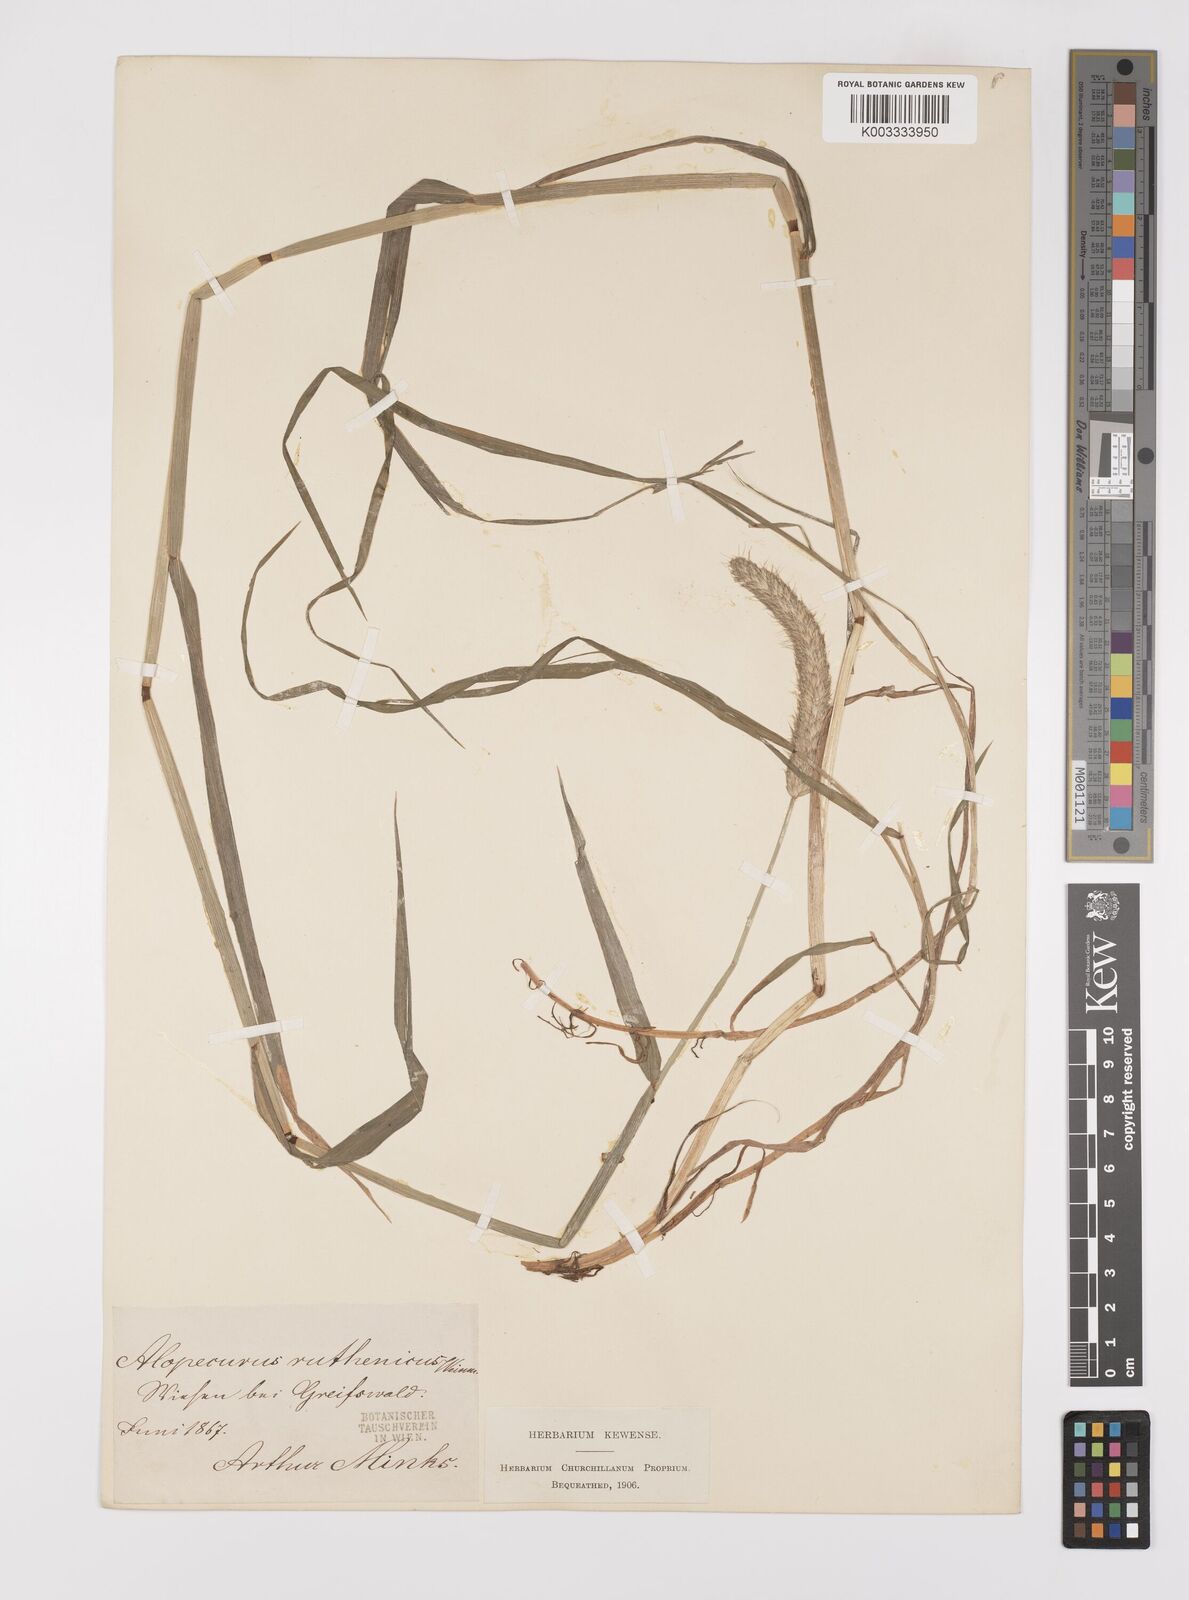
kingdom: Plantae
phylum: Tracheophyta
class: Liliopsida
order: Poales
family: Poaceae
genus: Alopecurus
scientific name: Alopecurus arundinaceus
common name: Creeping meadow foxtail
